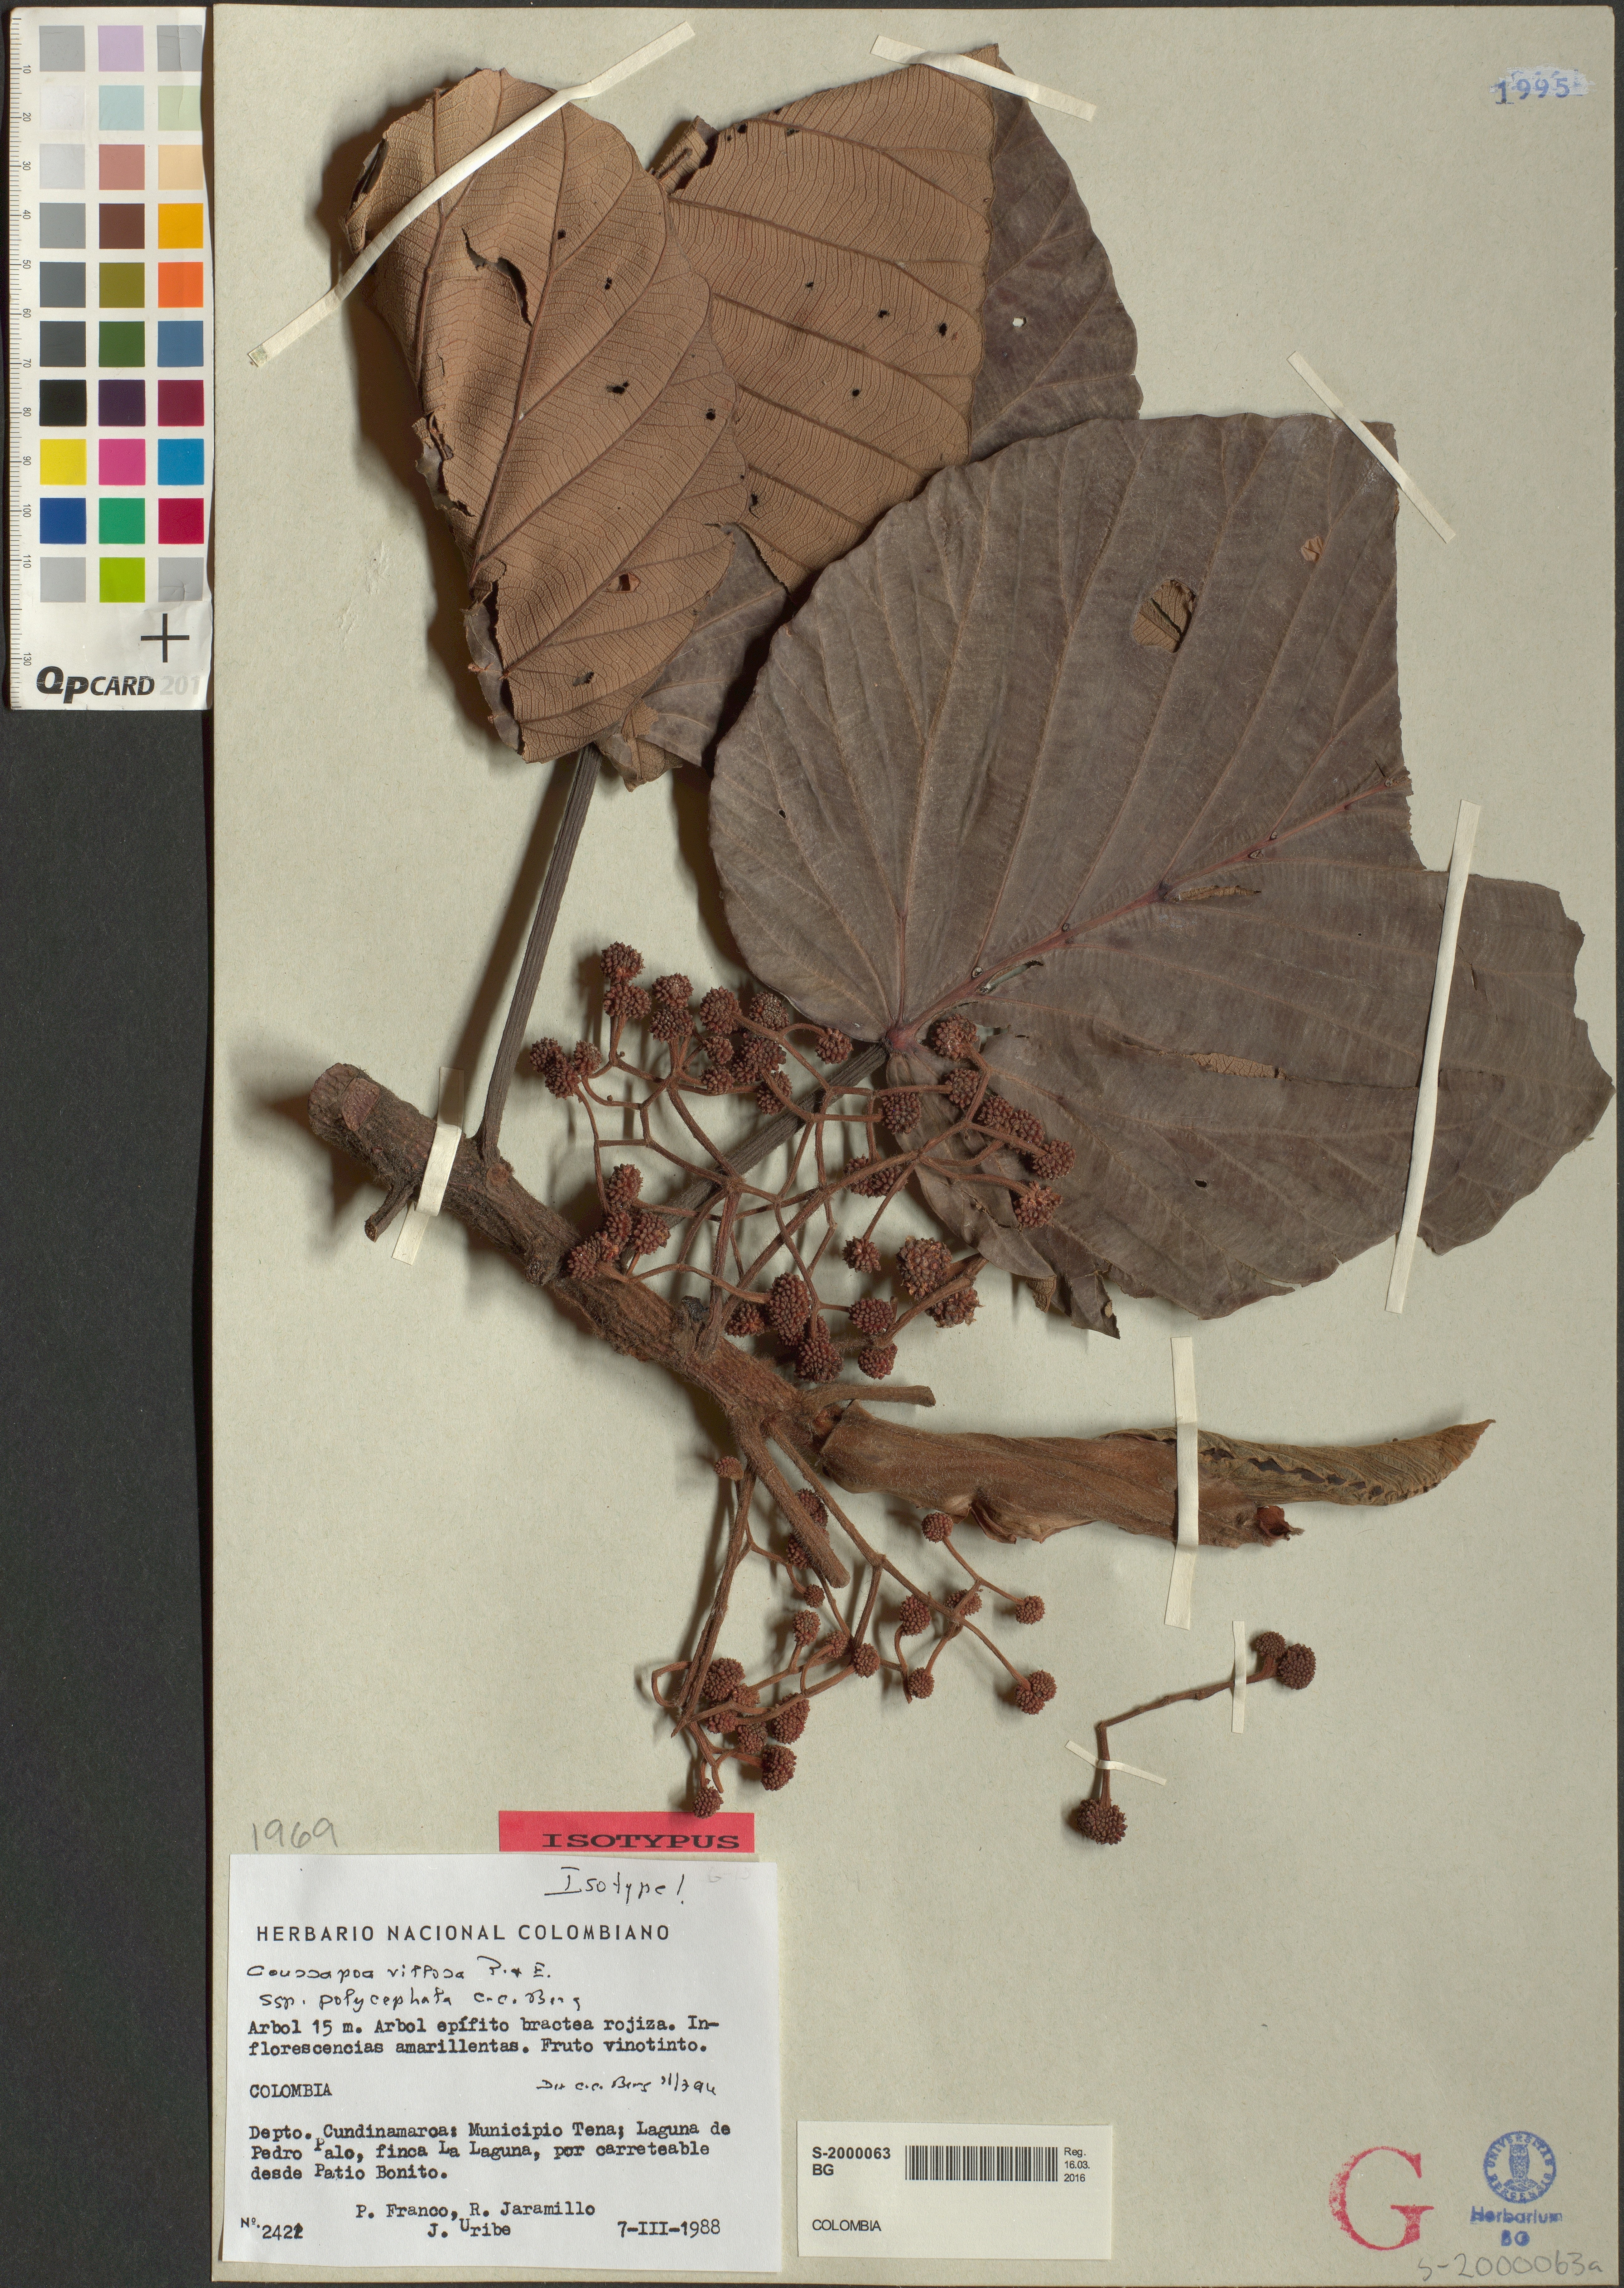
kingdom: Plantae
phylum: Tracheophyta
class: Magnoliopsida
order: Rosales
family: Urticaceae
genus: Coussapoa
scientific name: Coussapoa villosa
